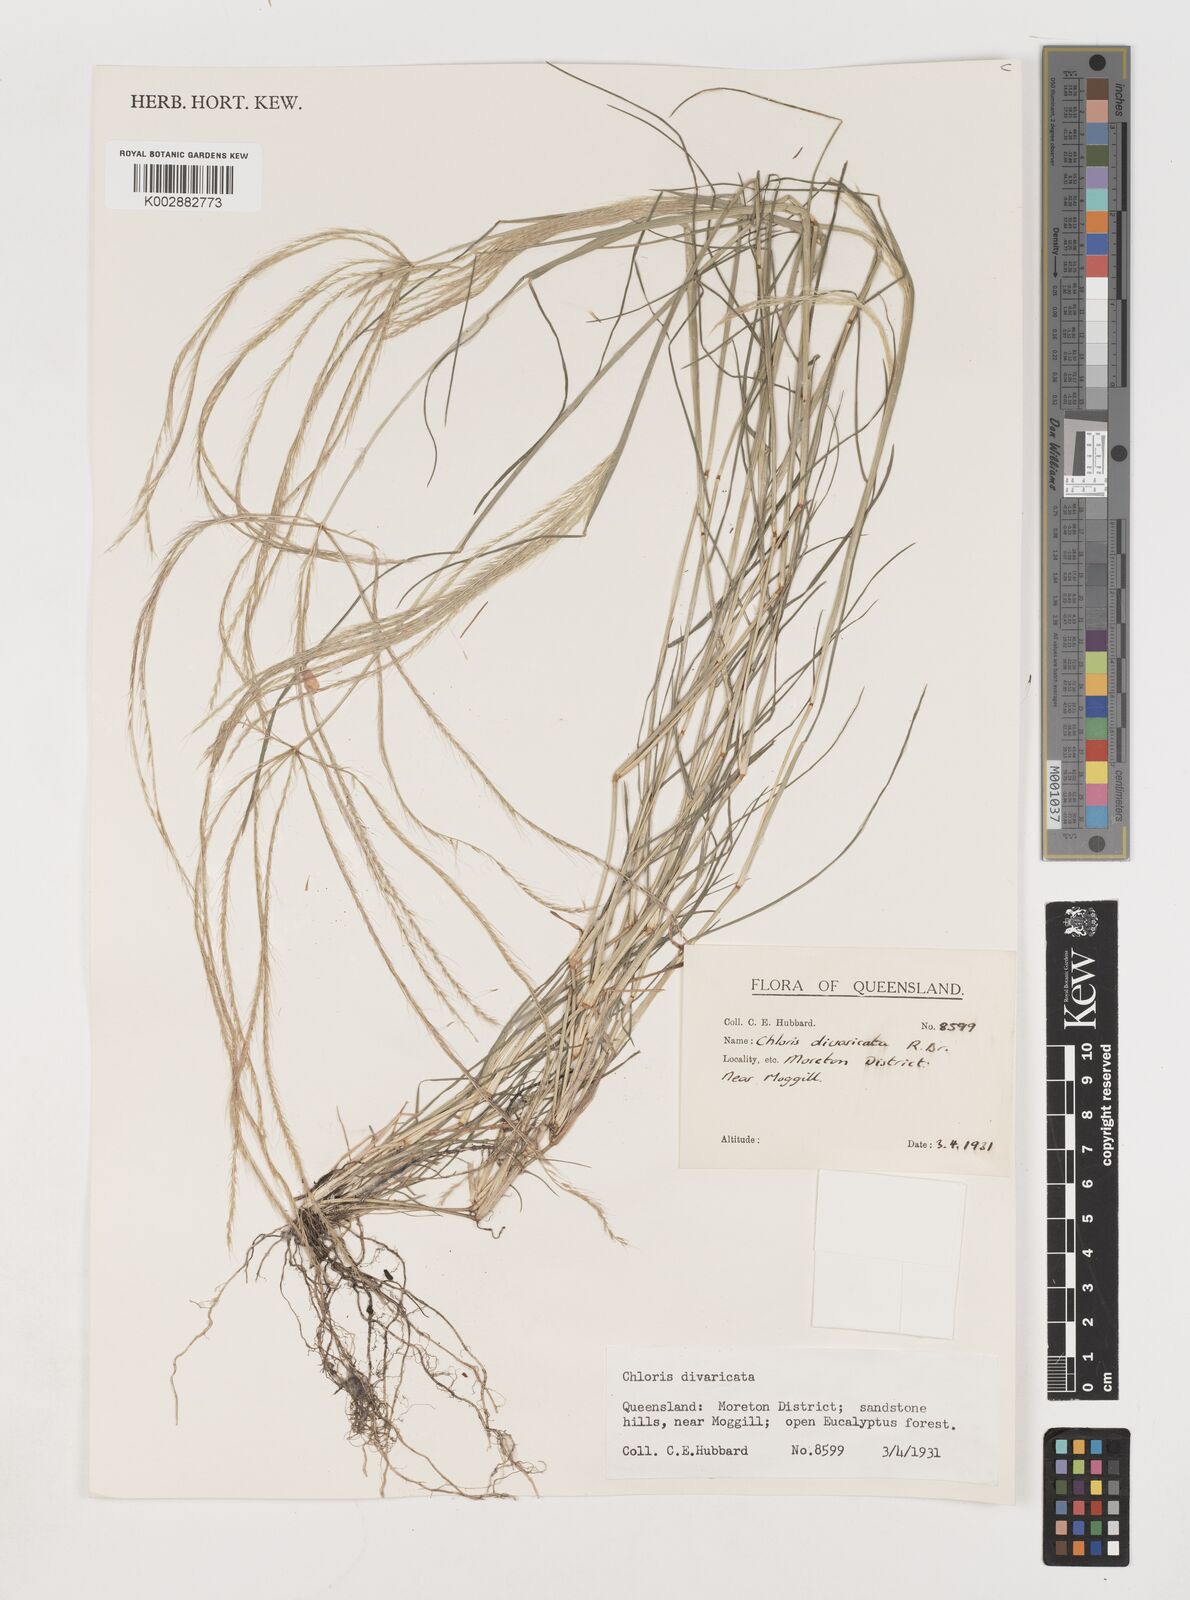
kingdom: Plantae
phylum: Tracheophyta
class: Liliopsida
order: Poales
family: Poaceae
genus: Chloris
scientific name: Chloris divaricata
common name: Spreading windmill grass
